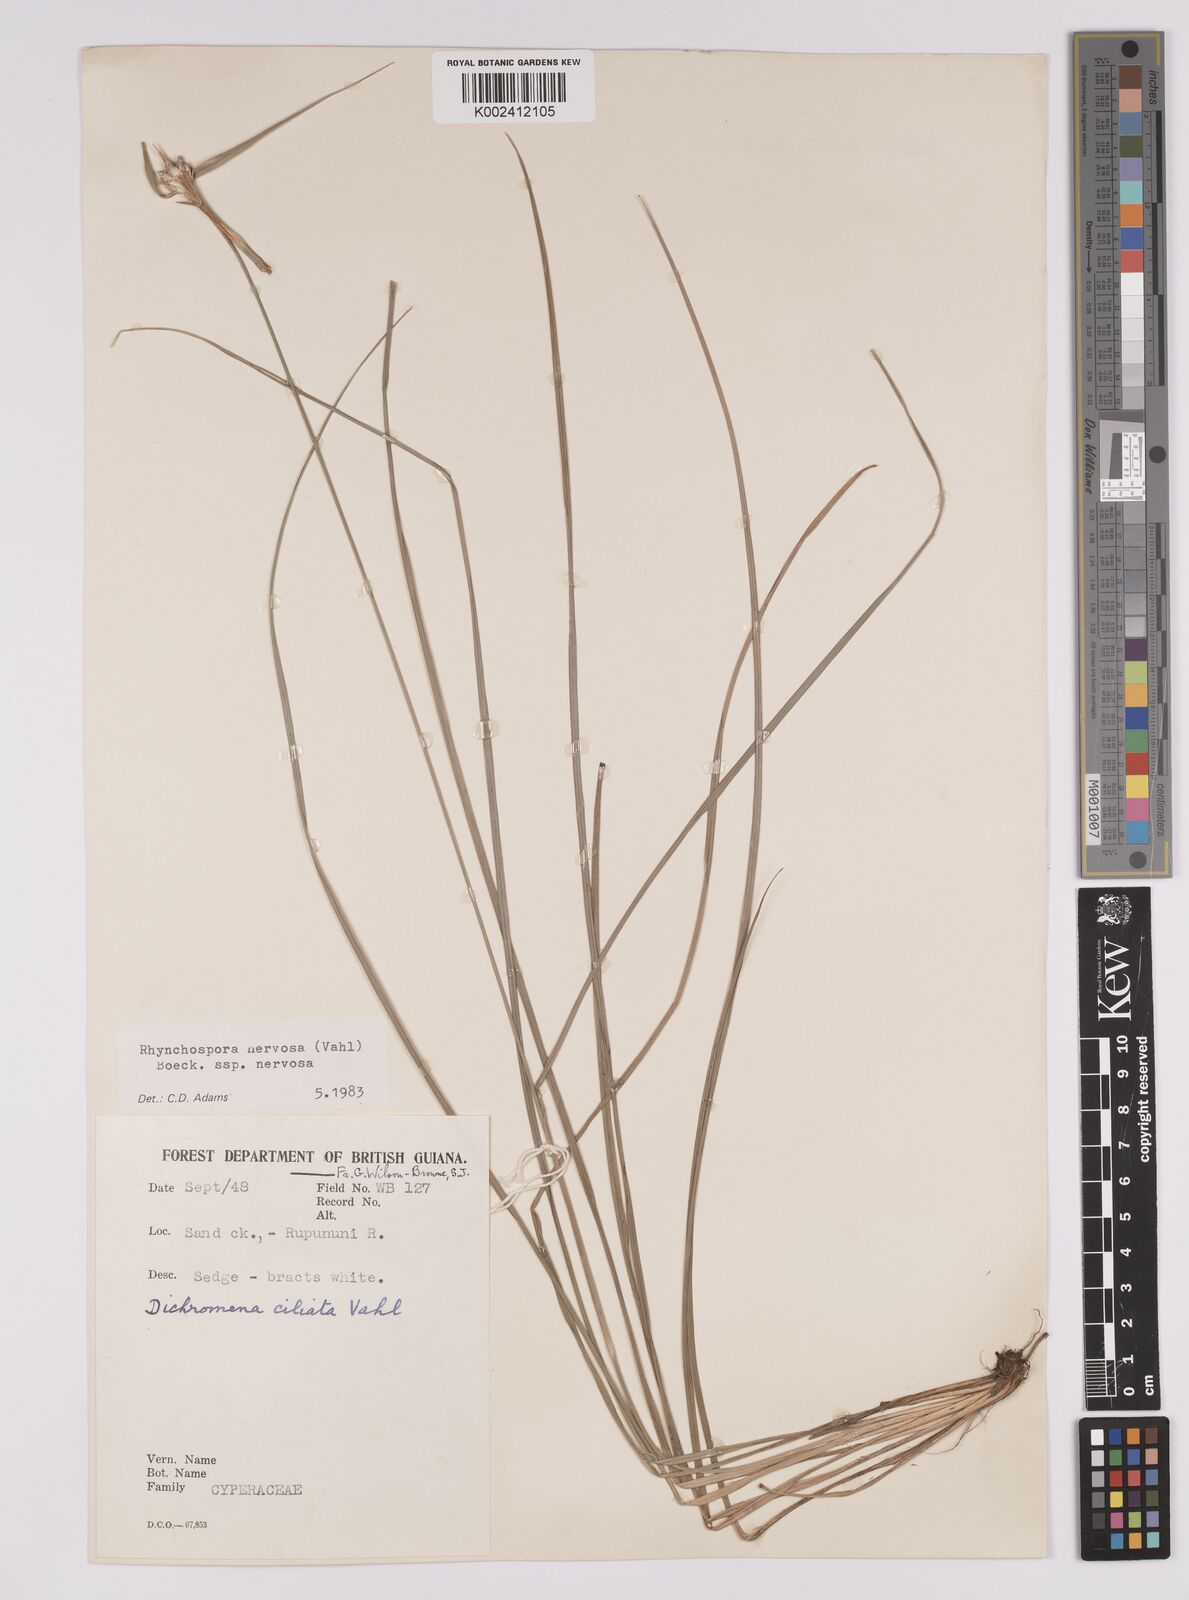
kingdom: Plantae
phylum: Tracheophyta
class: Liliopsida
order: Poales
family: Cyperaceae
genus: Rhynchospora
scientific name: Rhynchospora nervosa
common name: Star sedge
